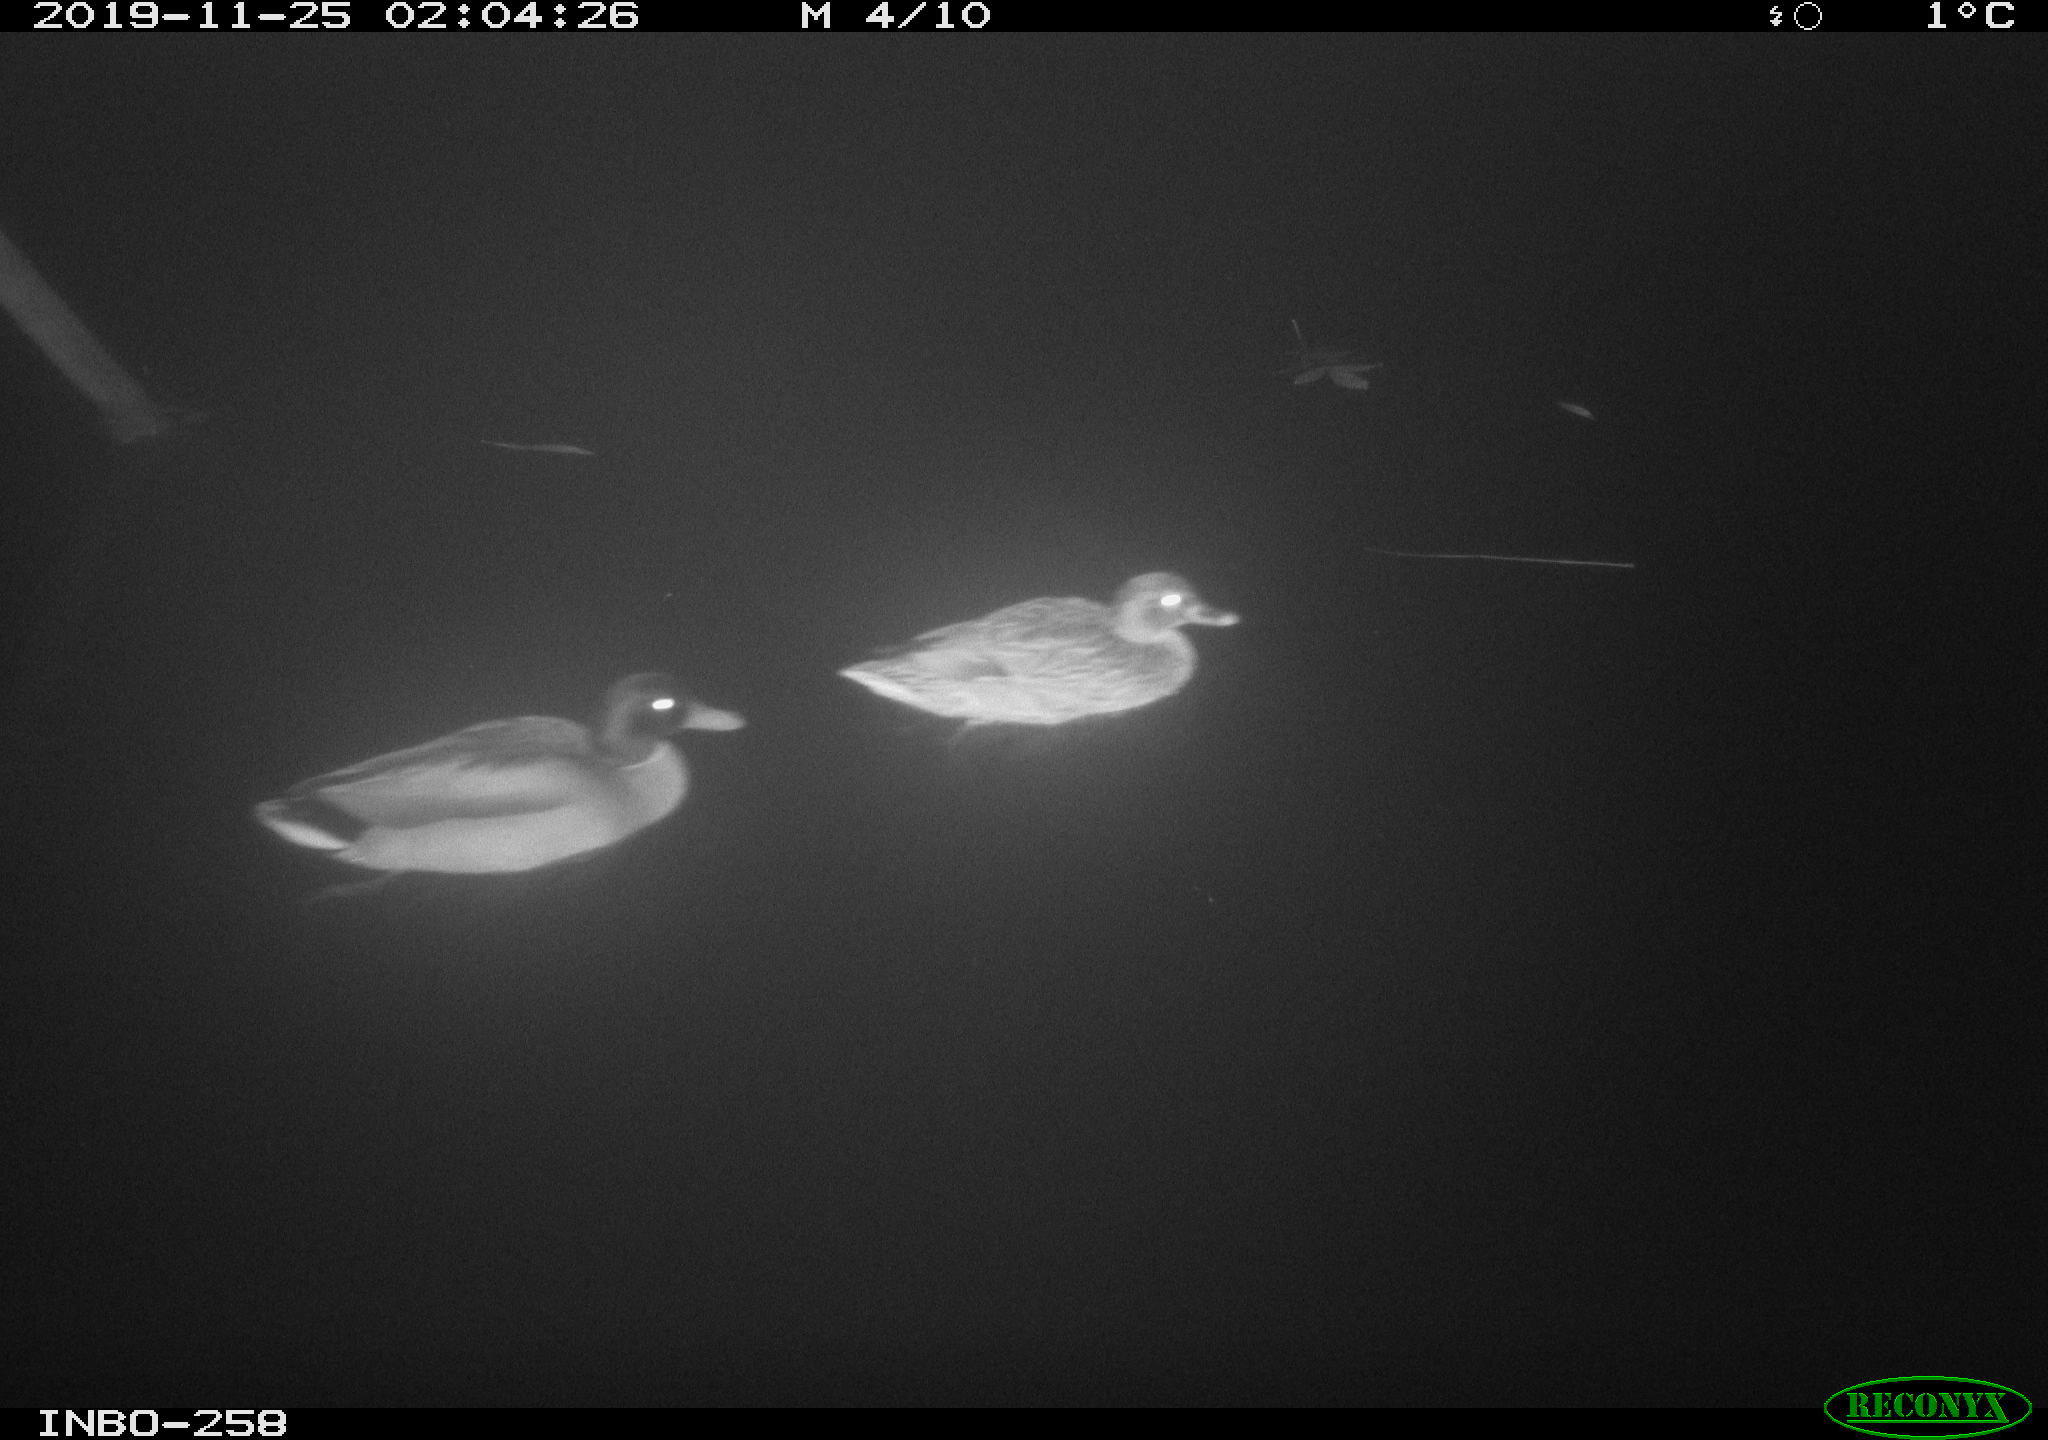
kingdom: Animalia
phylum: Chordata
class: Aves
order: Anseriformes
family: Anatidae
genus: Anas
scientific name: Anas platyrhynchos
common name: Mallard
